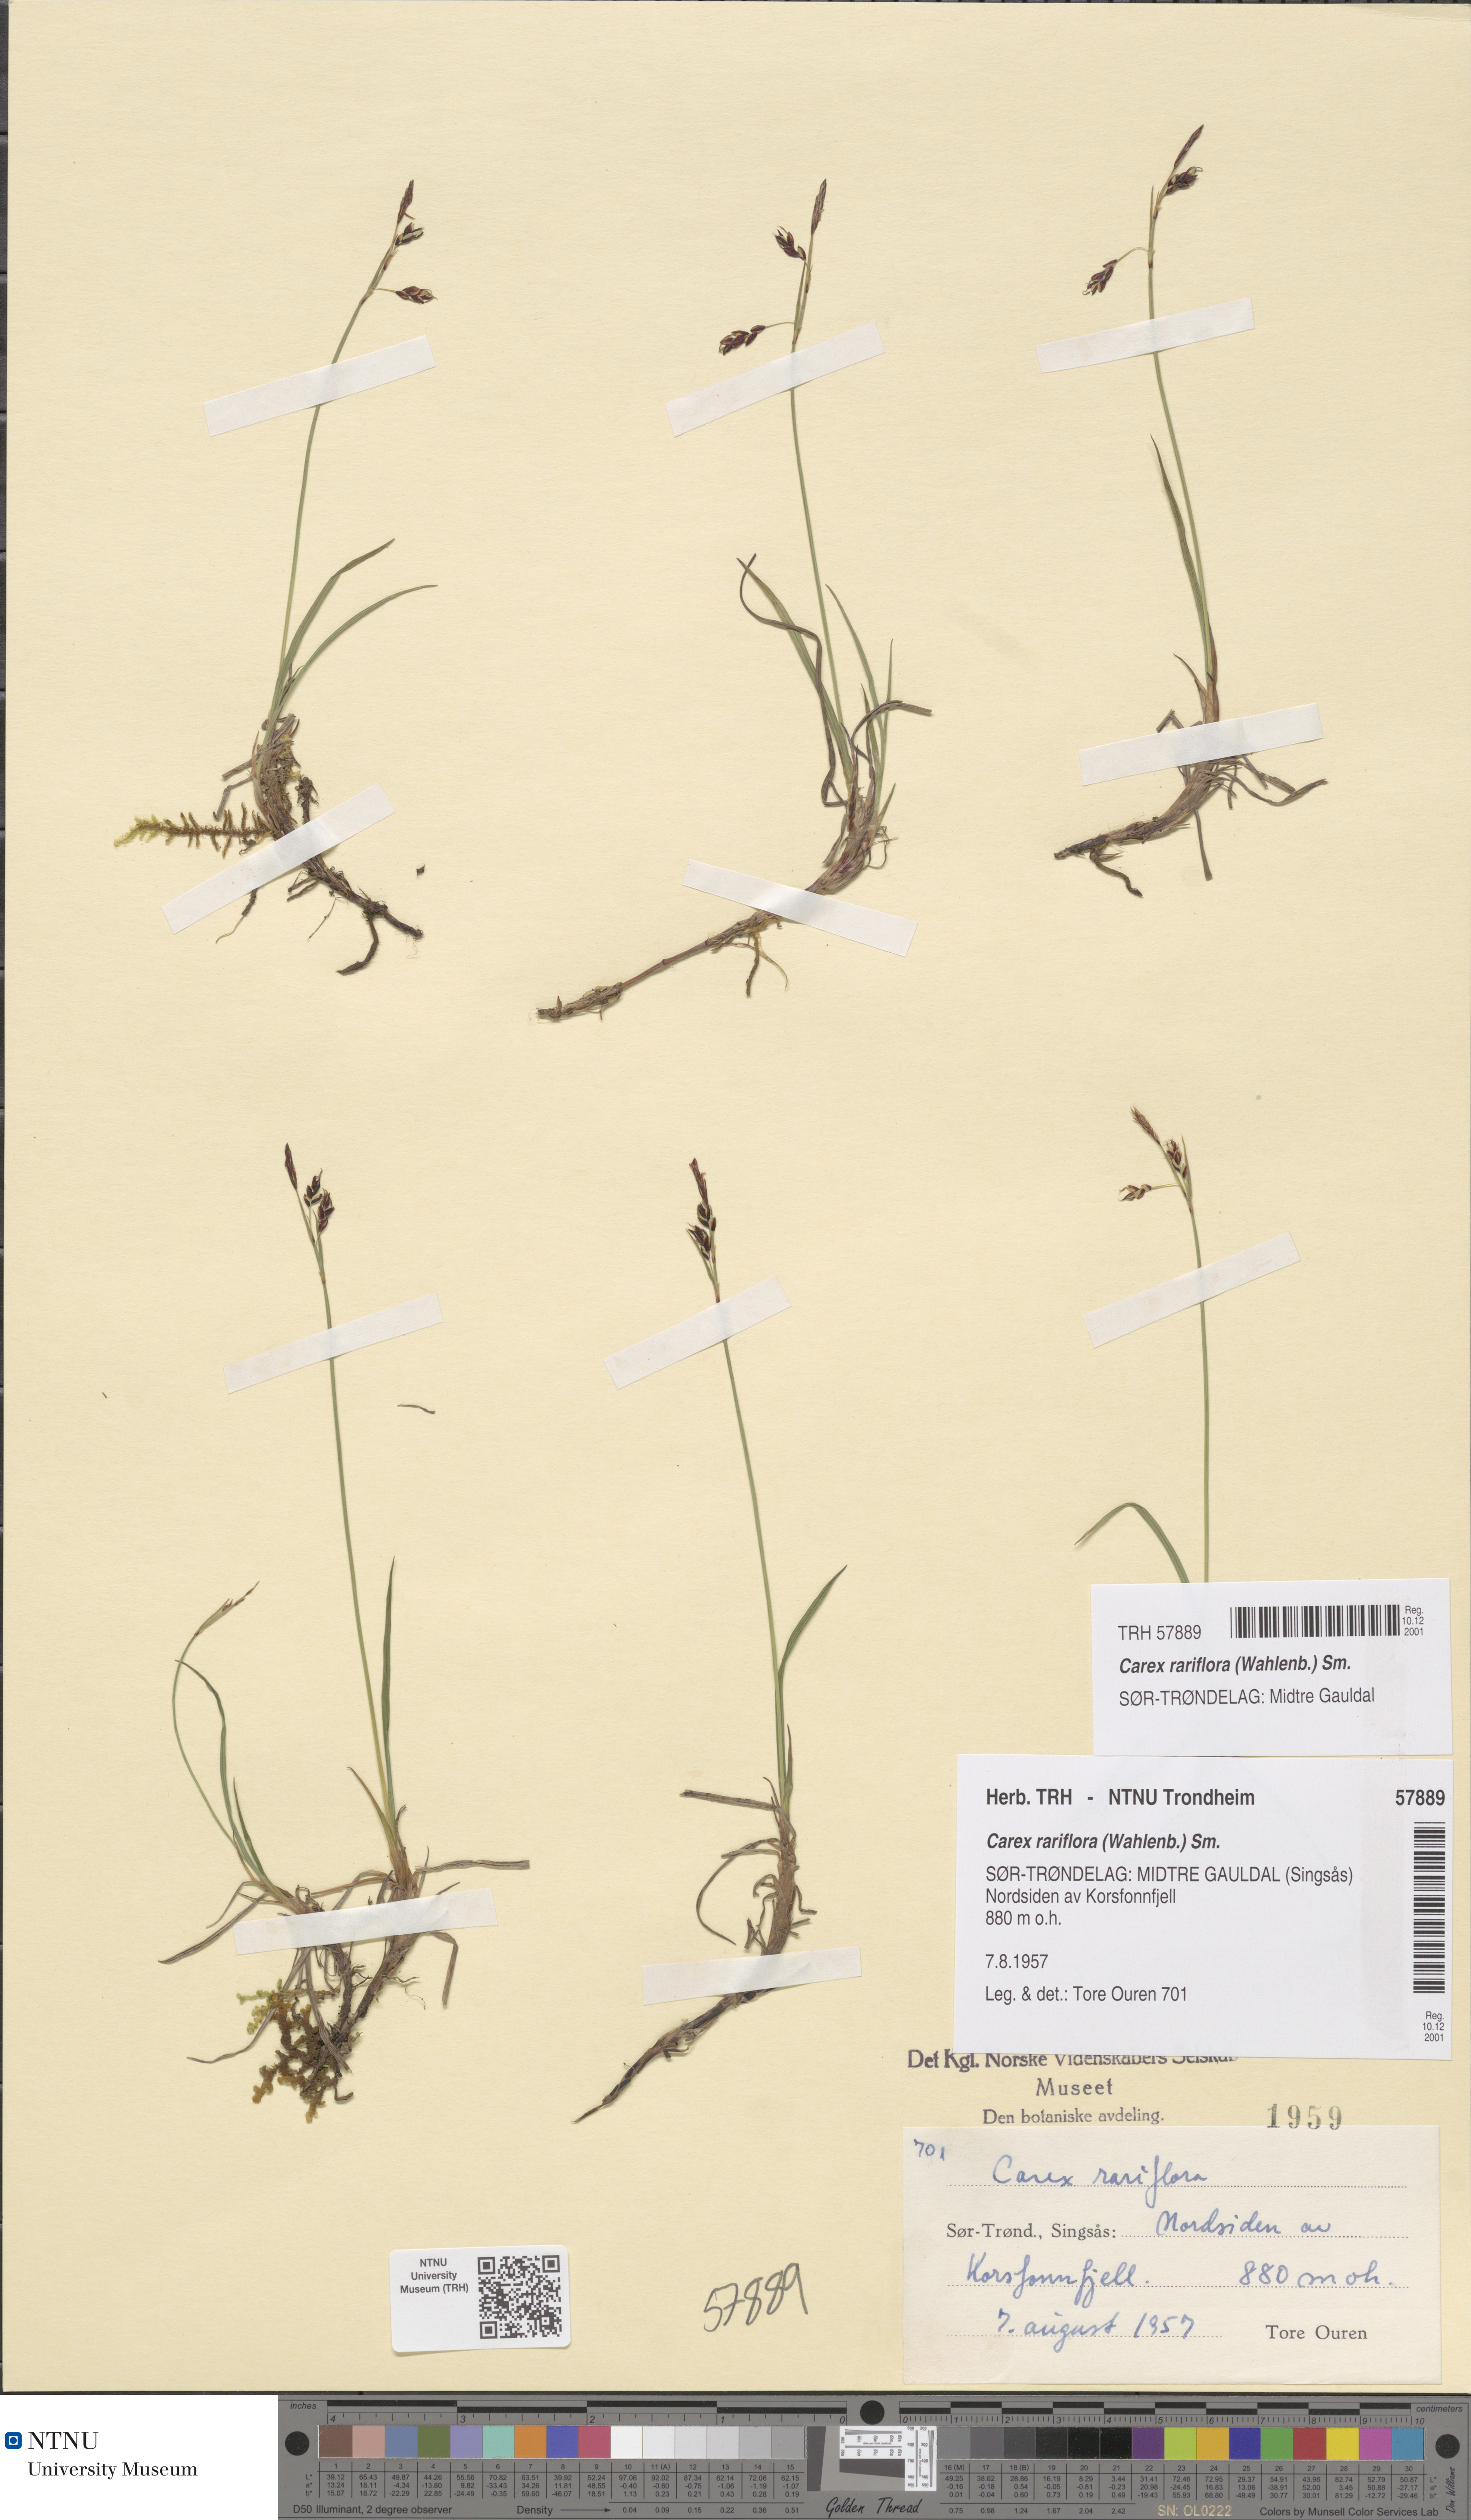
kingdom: Plantae
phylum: Tracheophyta
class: Liliopsida
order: Poales
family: Cyperaceae
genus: Carex
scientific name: Carex rariflora
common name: Loose-flowered alpine sedge
